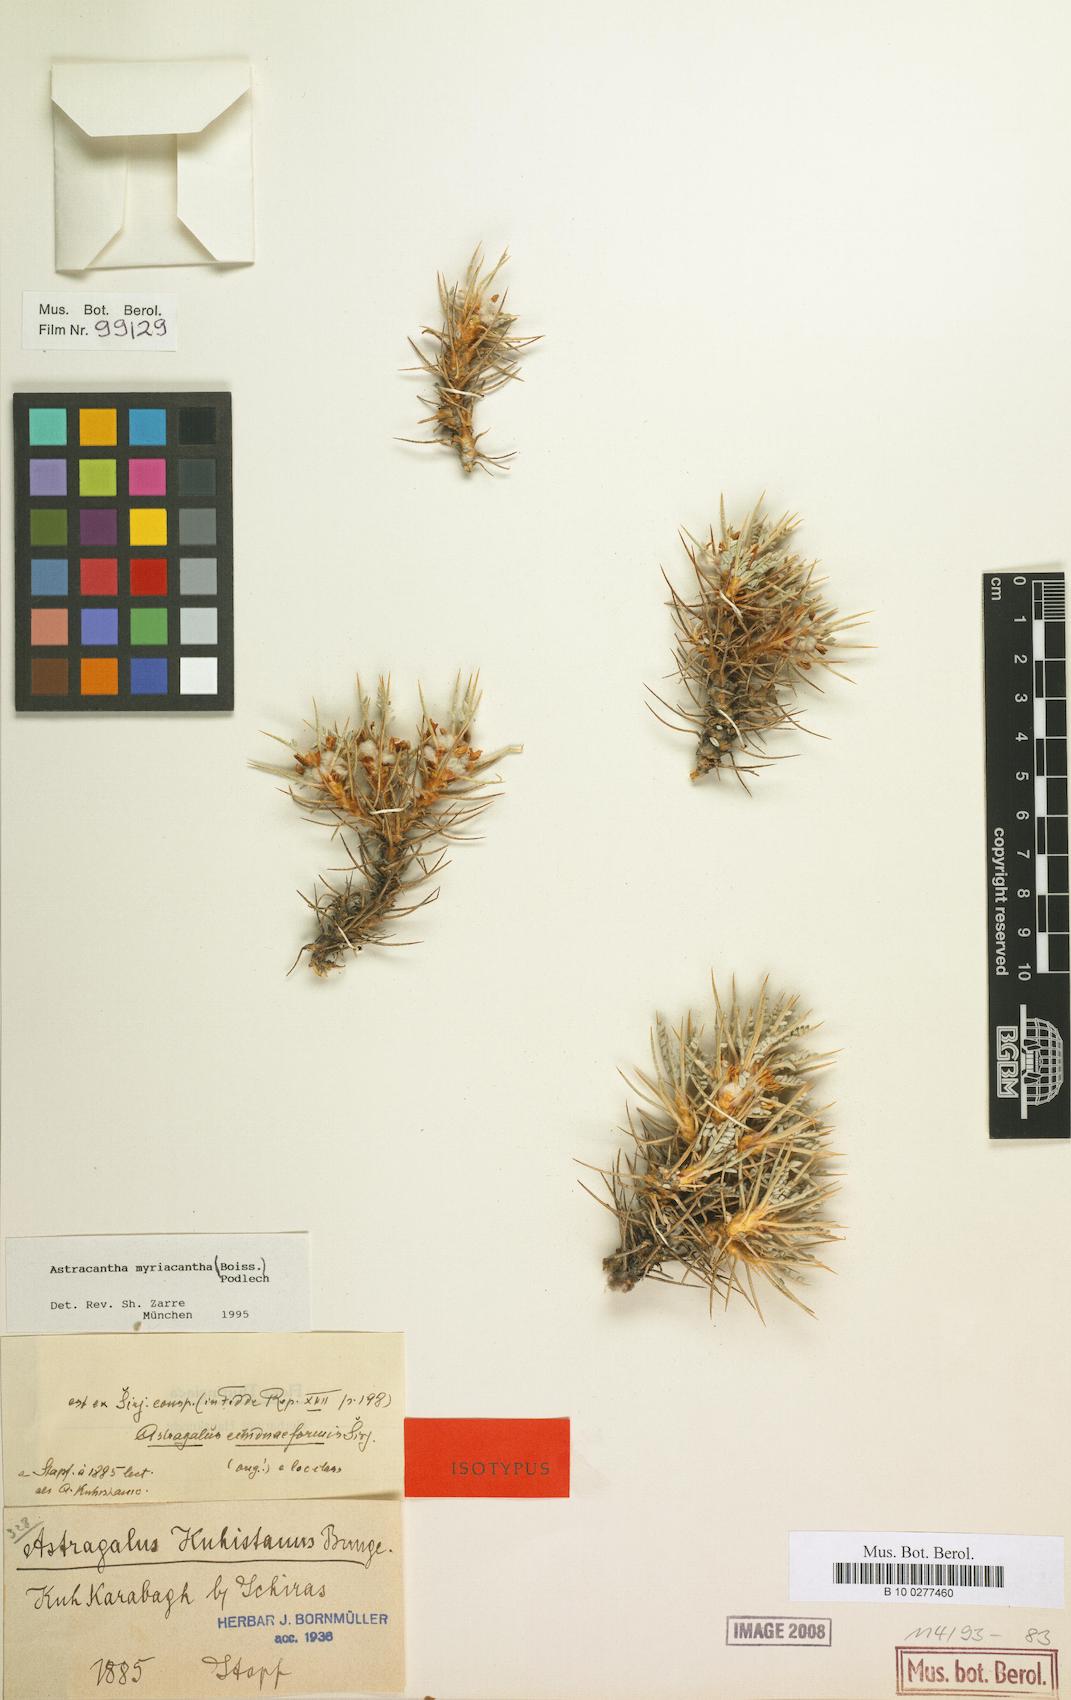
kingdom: Plantae
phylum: Tracheophyta
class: Magnoliopsida
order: Fabales
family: Fabaceae
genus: Astragalus
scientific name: Astragalus myriacanthus
